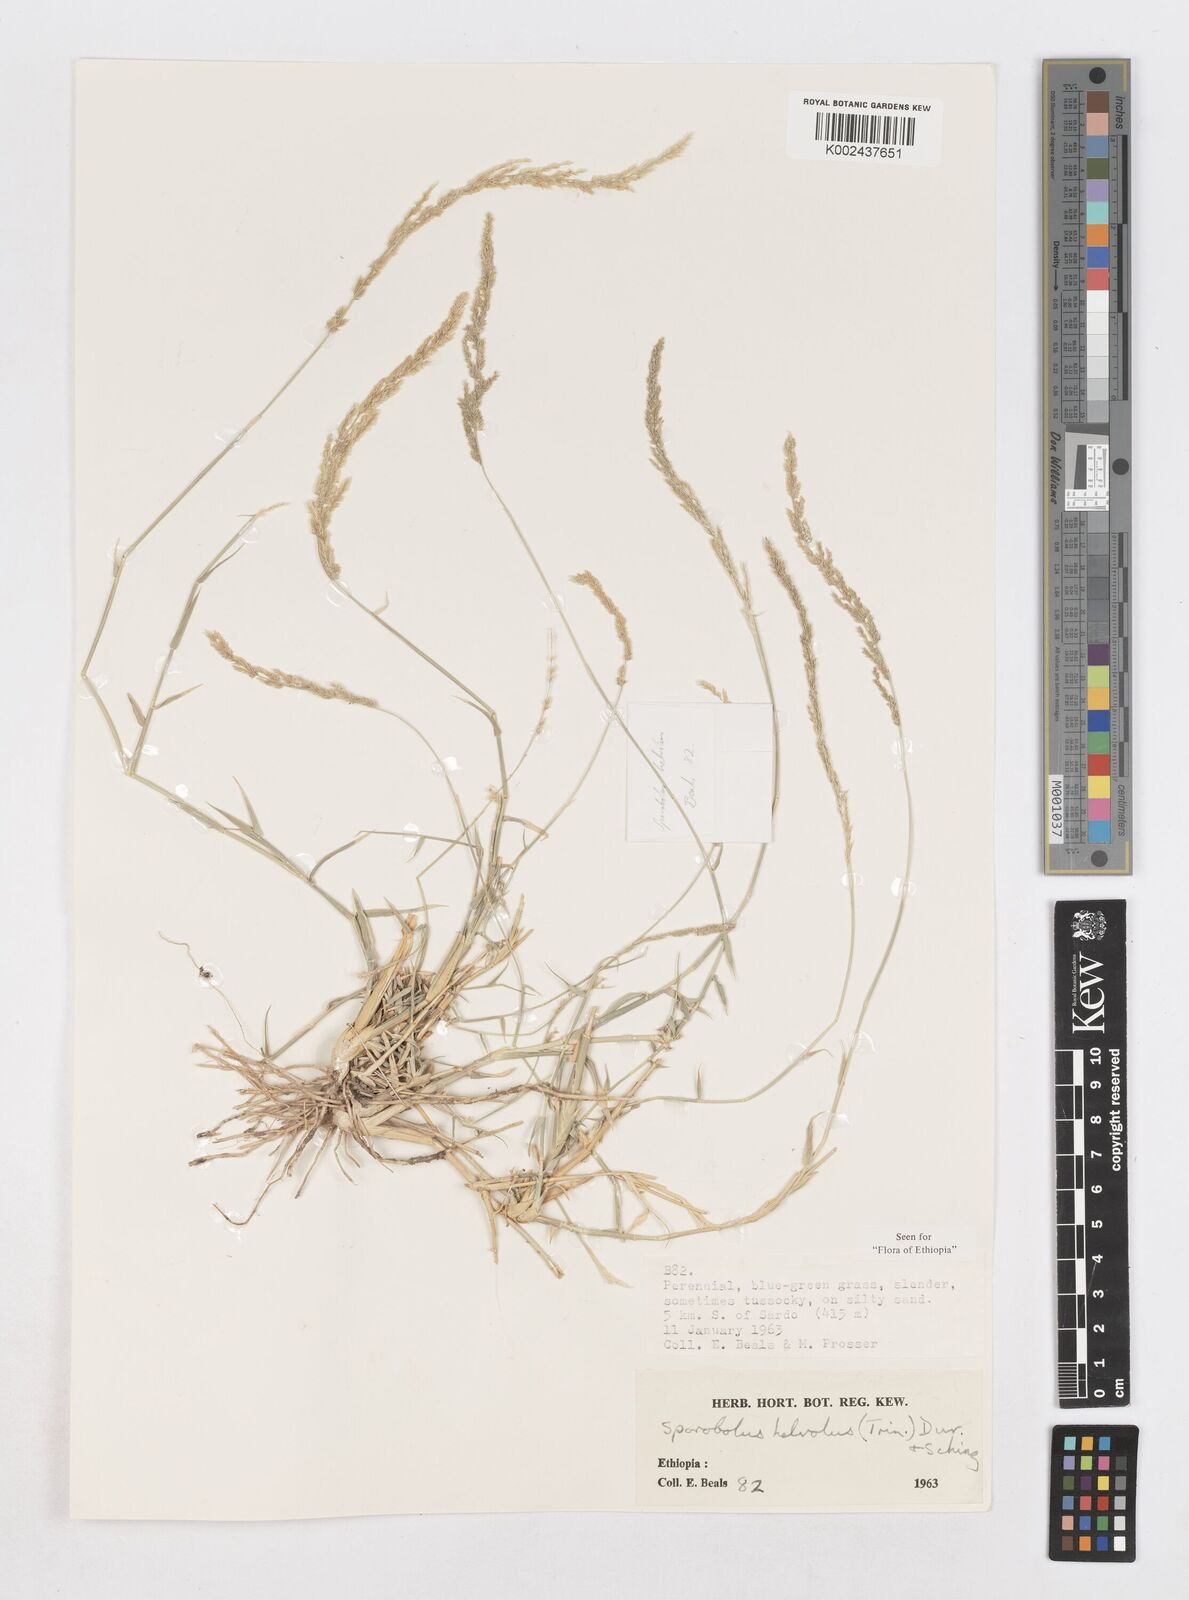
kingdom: Plantae
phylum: Tracheophyta
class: Liliopsida
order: Poales
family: Poaceae
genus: Sporobolus
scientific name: Sporobolus helvolus
